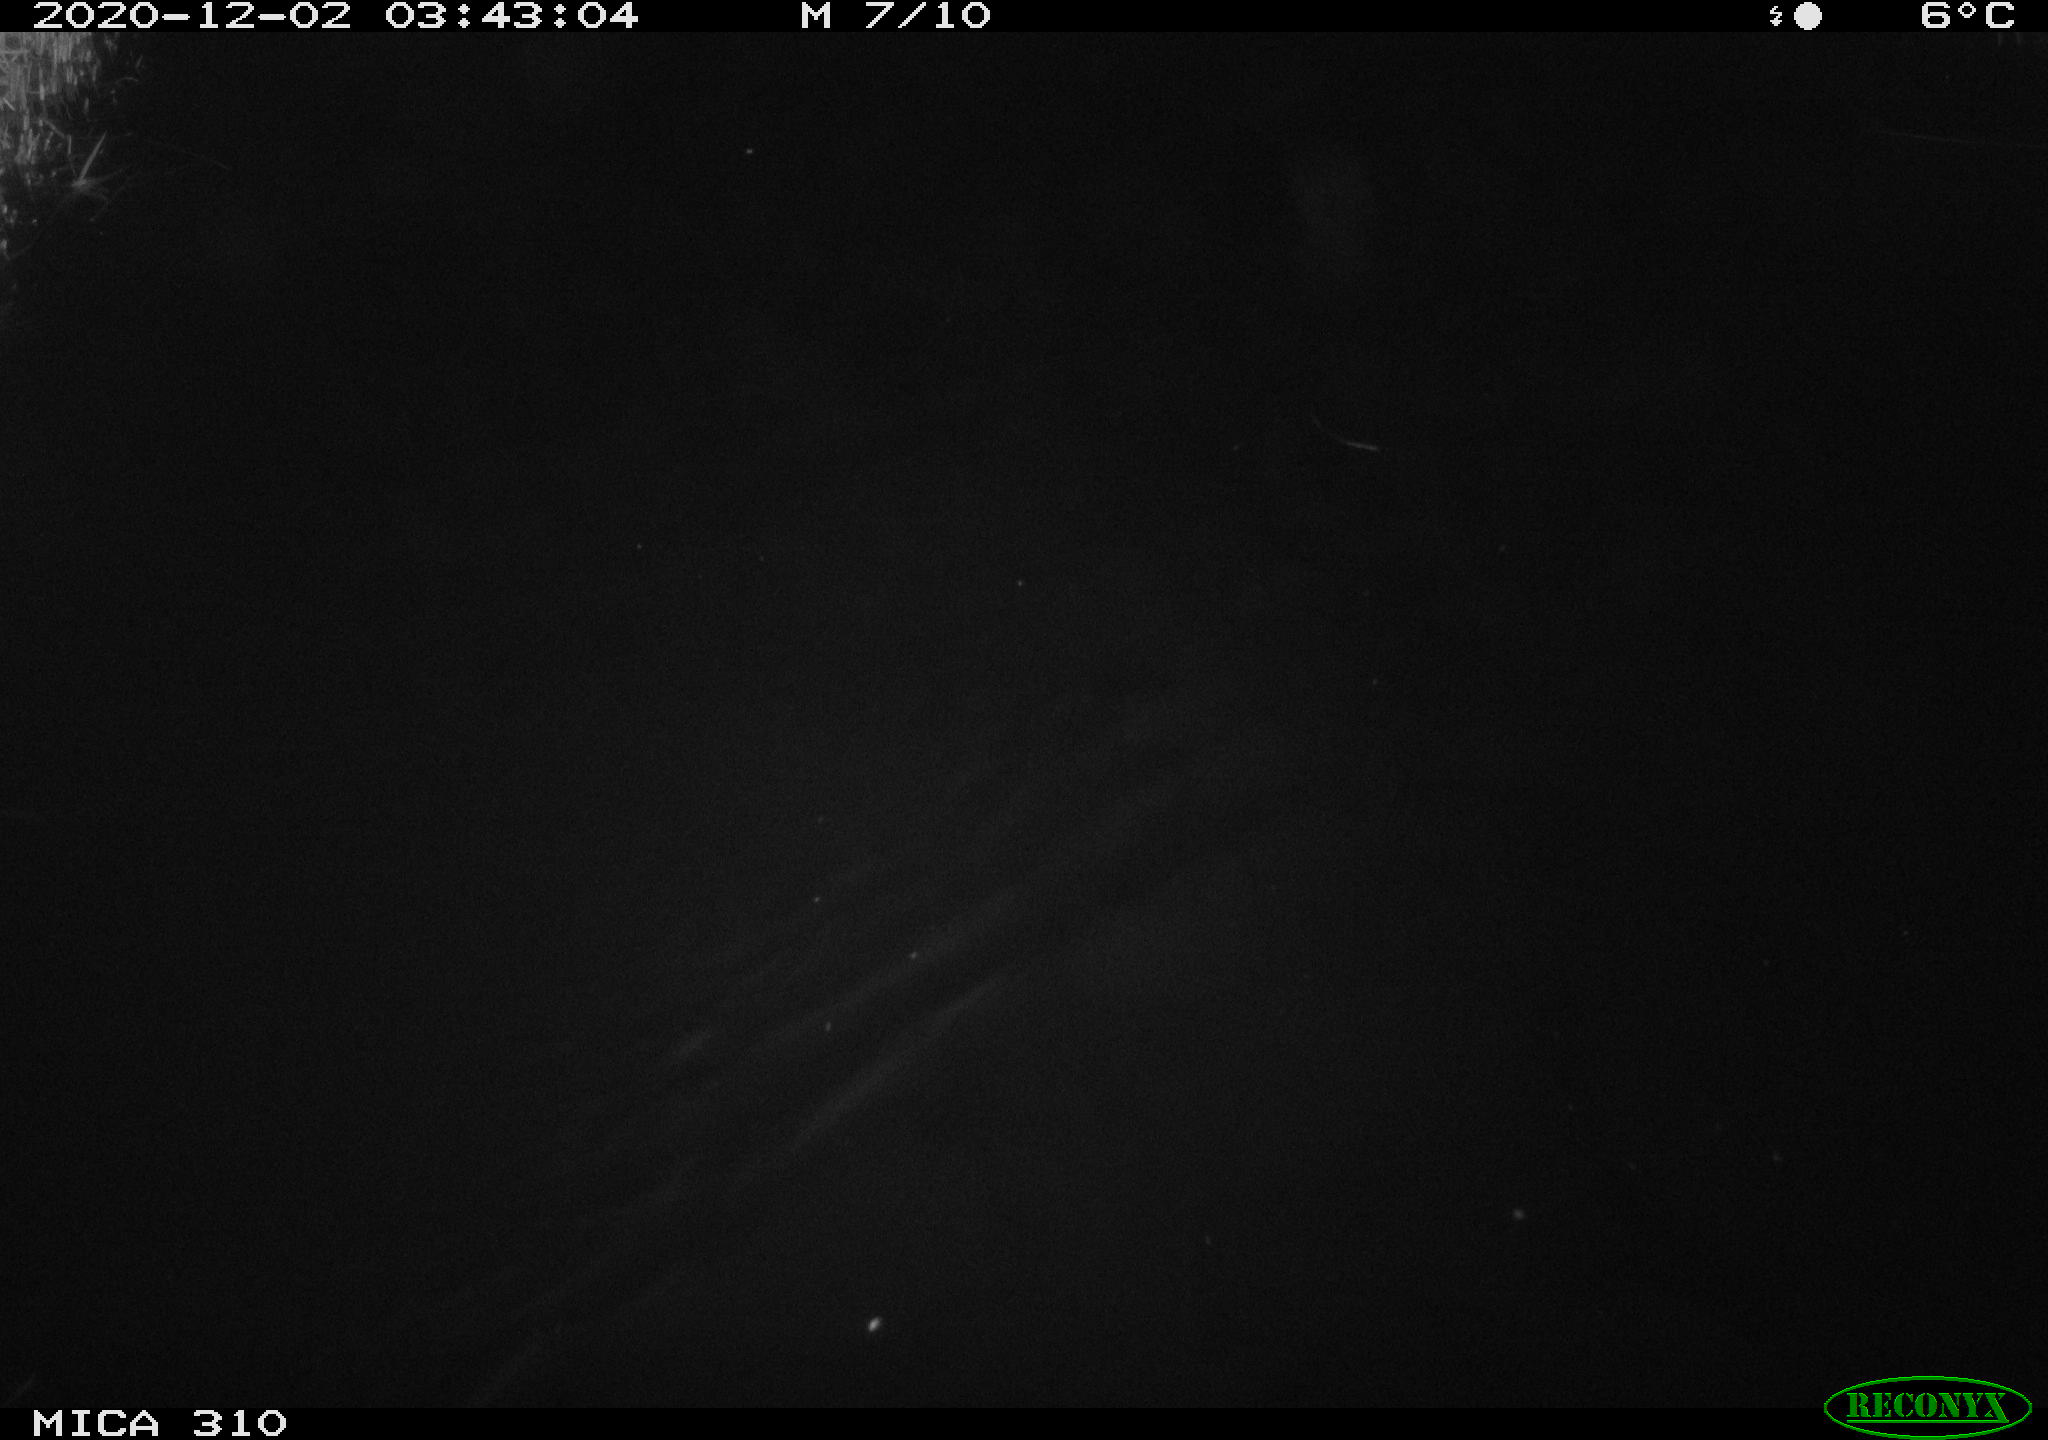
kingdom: Animalia
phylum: Chordata
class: Mammalia
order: Rodentia
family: Cricetidae
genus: Ondatra
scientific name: Ondatra zibethicus
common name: Muskrat
